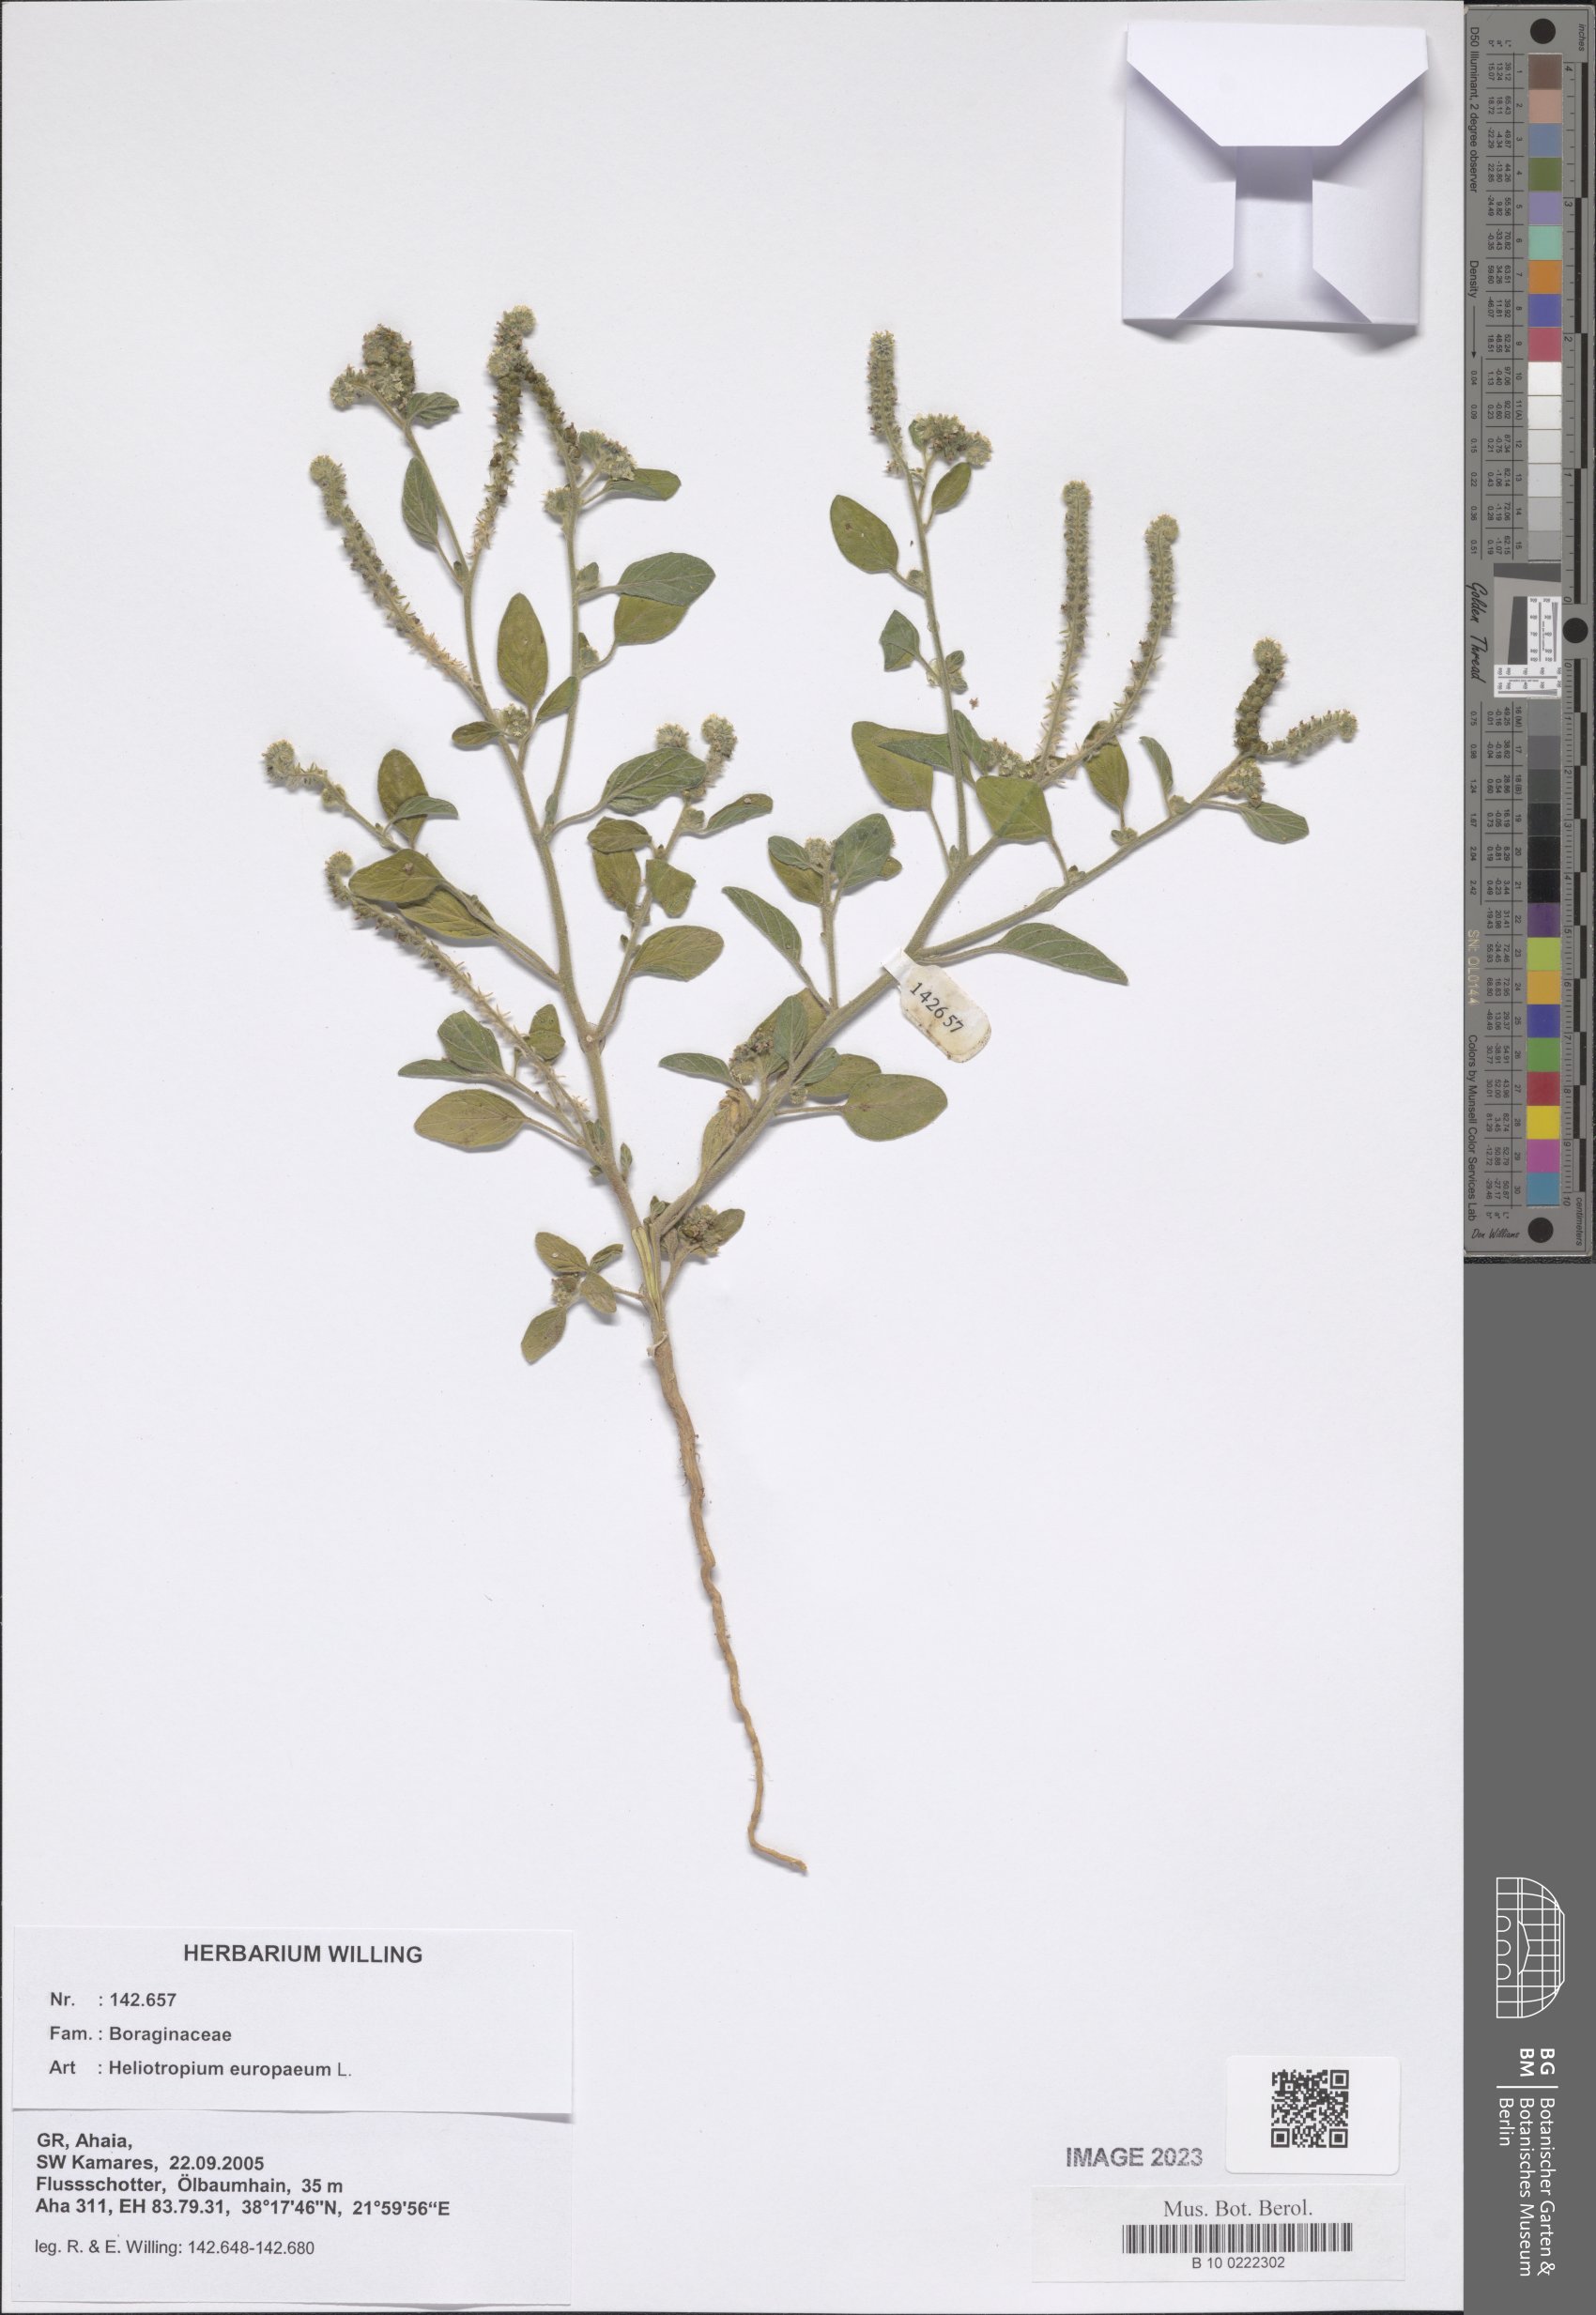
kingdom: Plantae
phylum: Tracheophyta
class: Magnoliopsida
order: Boraginales
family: Heliotropiaceae
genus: Heliotropium
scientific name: Heliotropium europaeum
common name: European heliotrope
